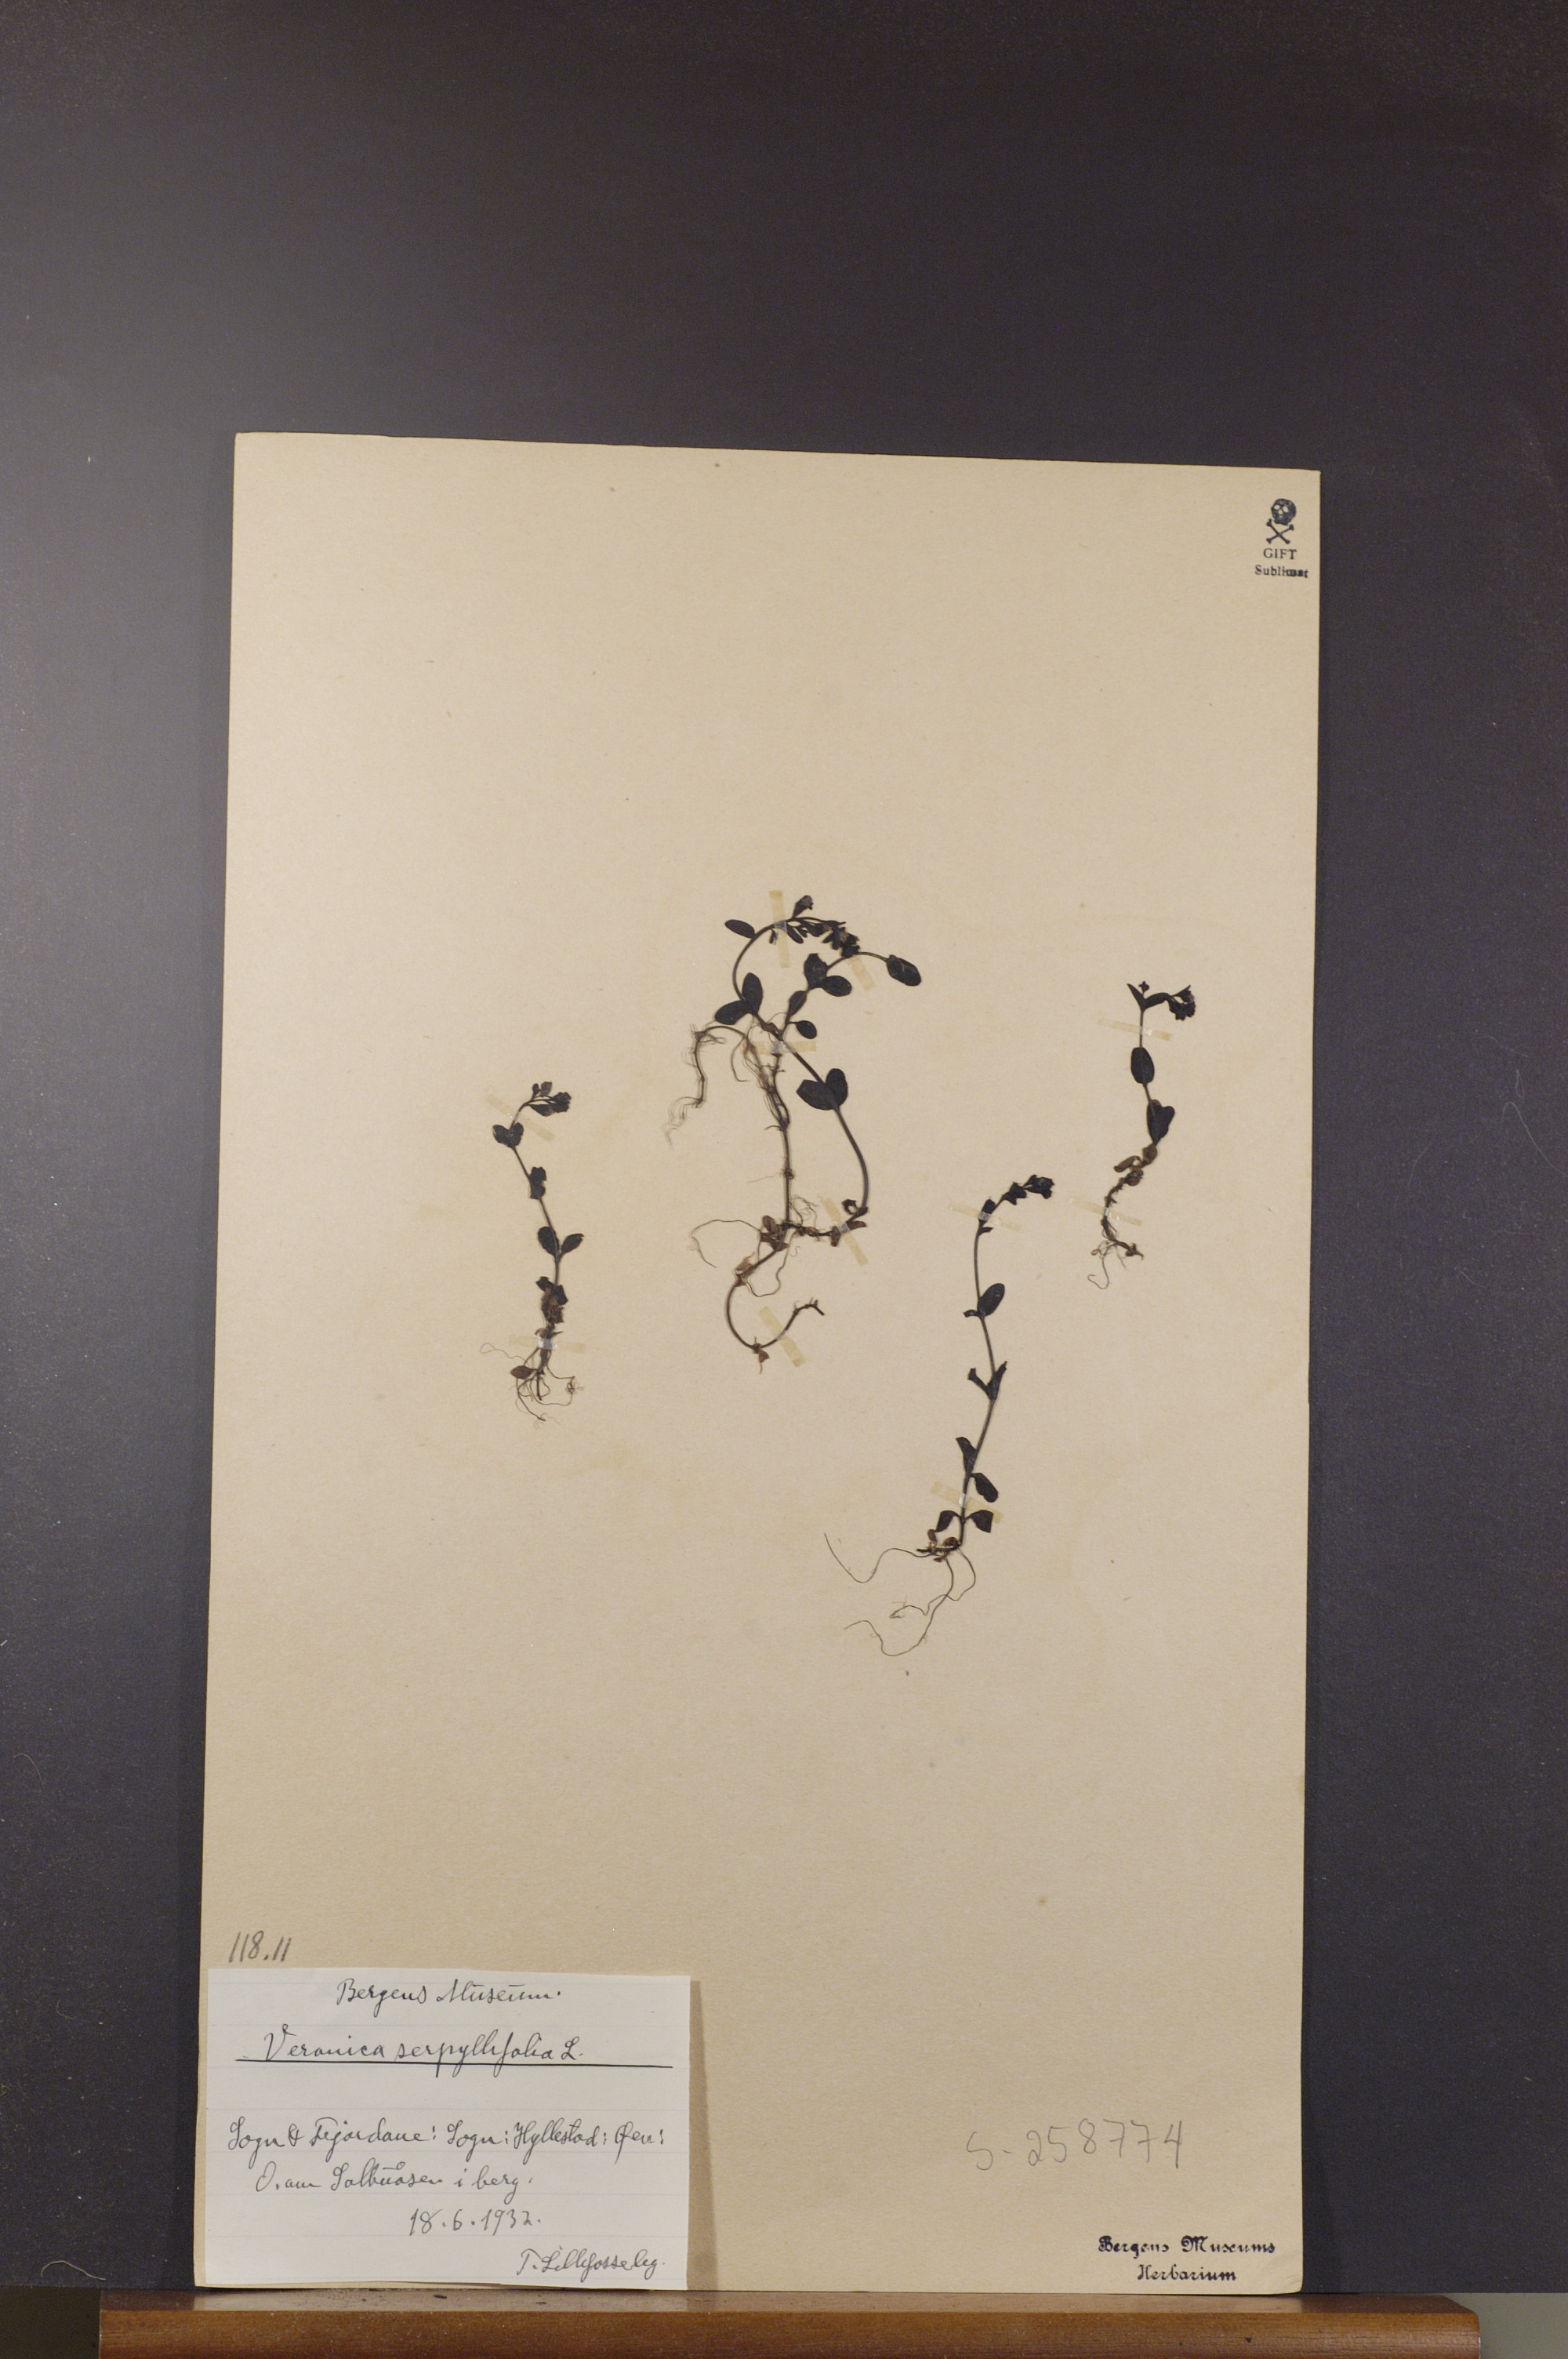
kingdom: Plantae
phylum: Tracheophyta
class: Magnoliopsida
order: Lamiales
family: Plantaginaceae
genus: Veronica
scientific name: Veronica serpyllifolia
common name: Thyme-leaved speedwell
